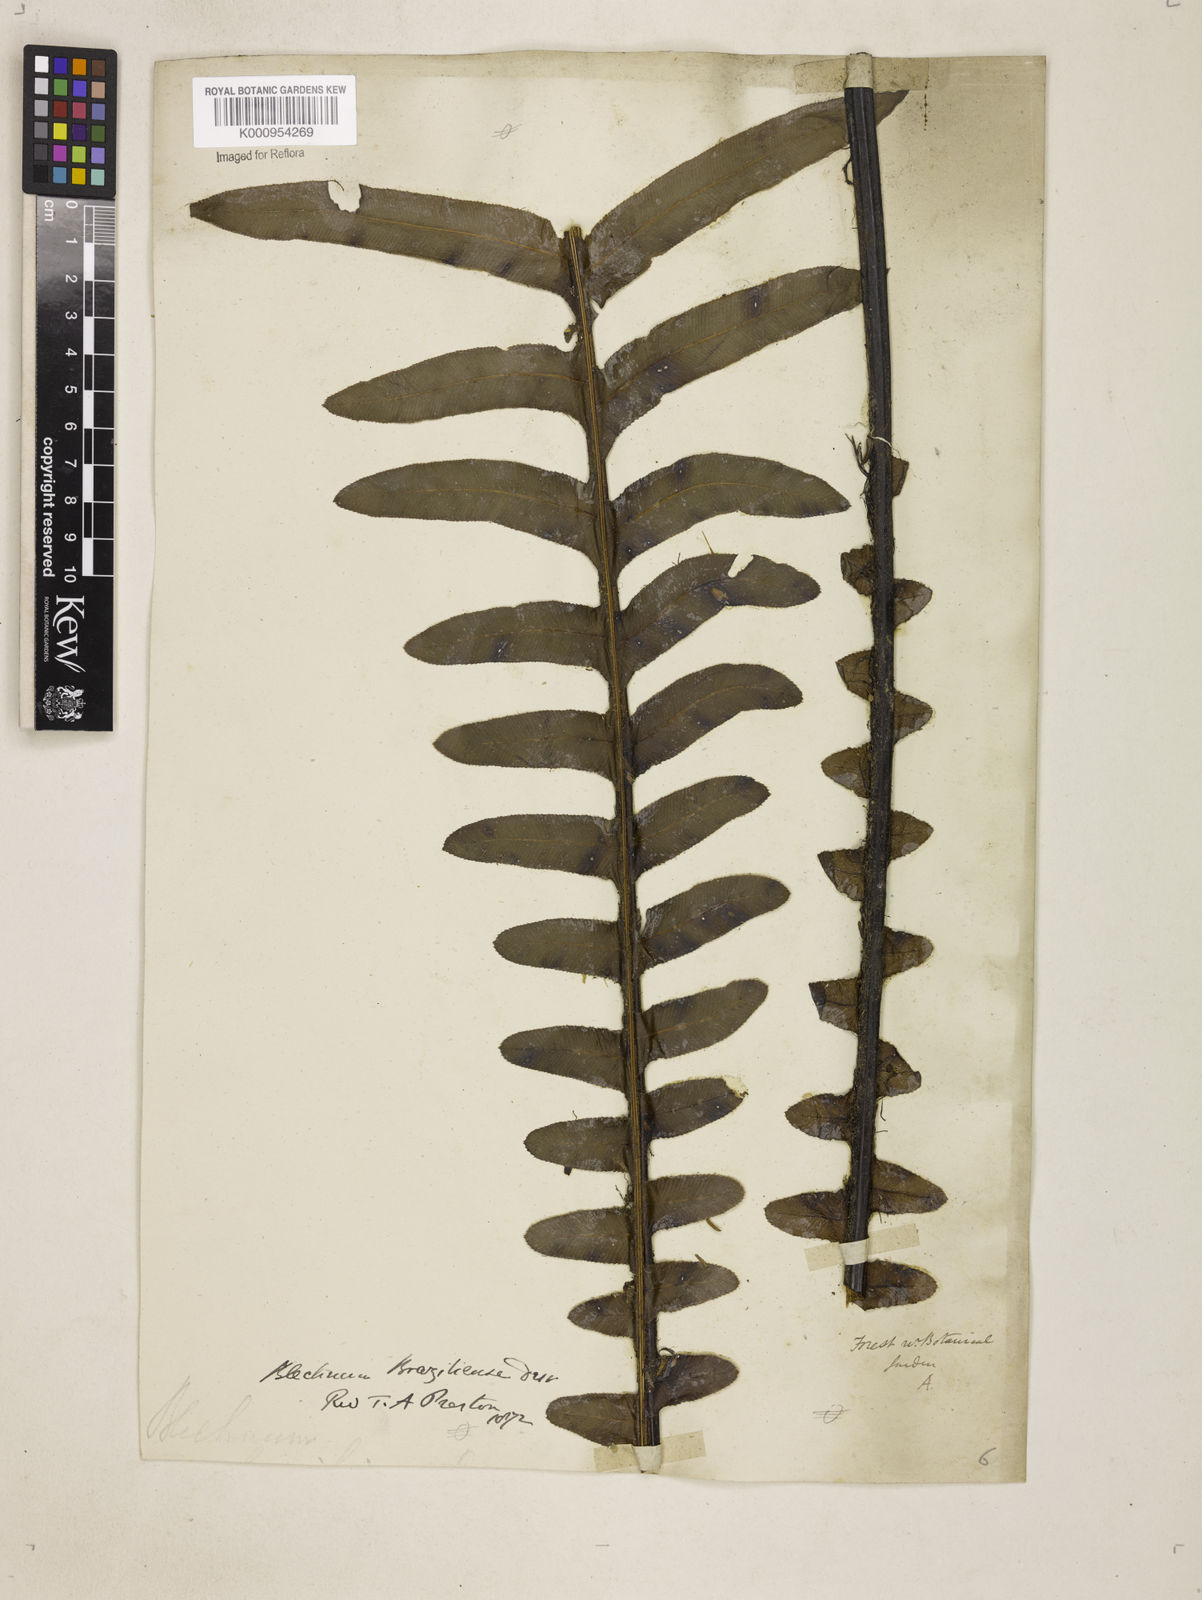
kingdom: Plantae
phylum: Tracheophyta
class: Polypodiopsida
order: Polypodiales
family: Blechnaceae
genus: Neoblechnum
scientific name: Neoblechnum brasiliense
